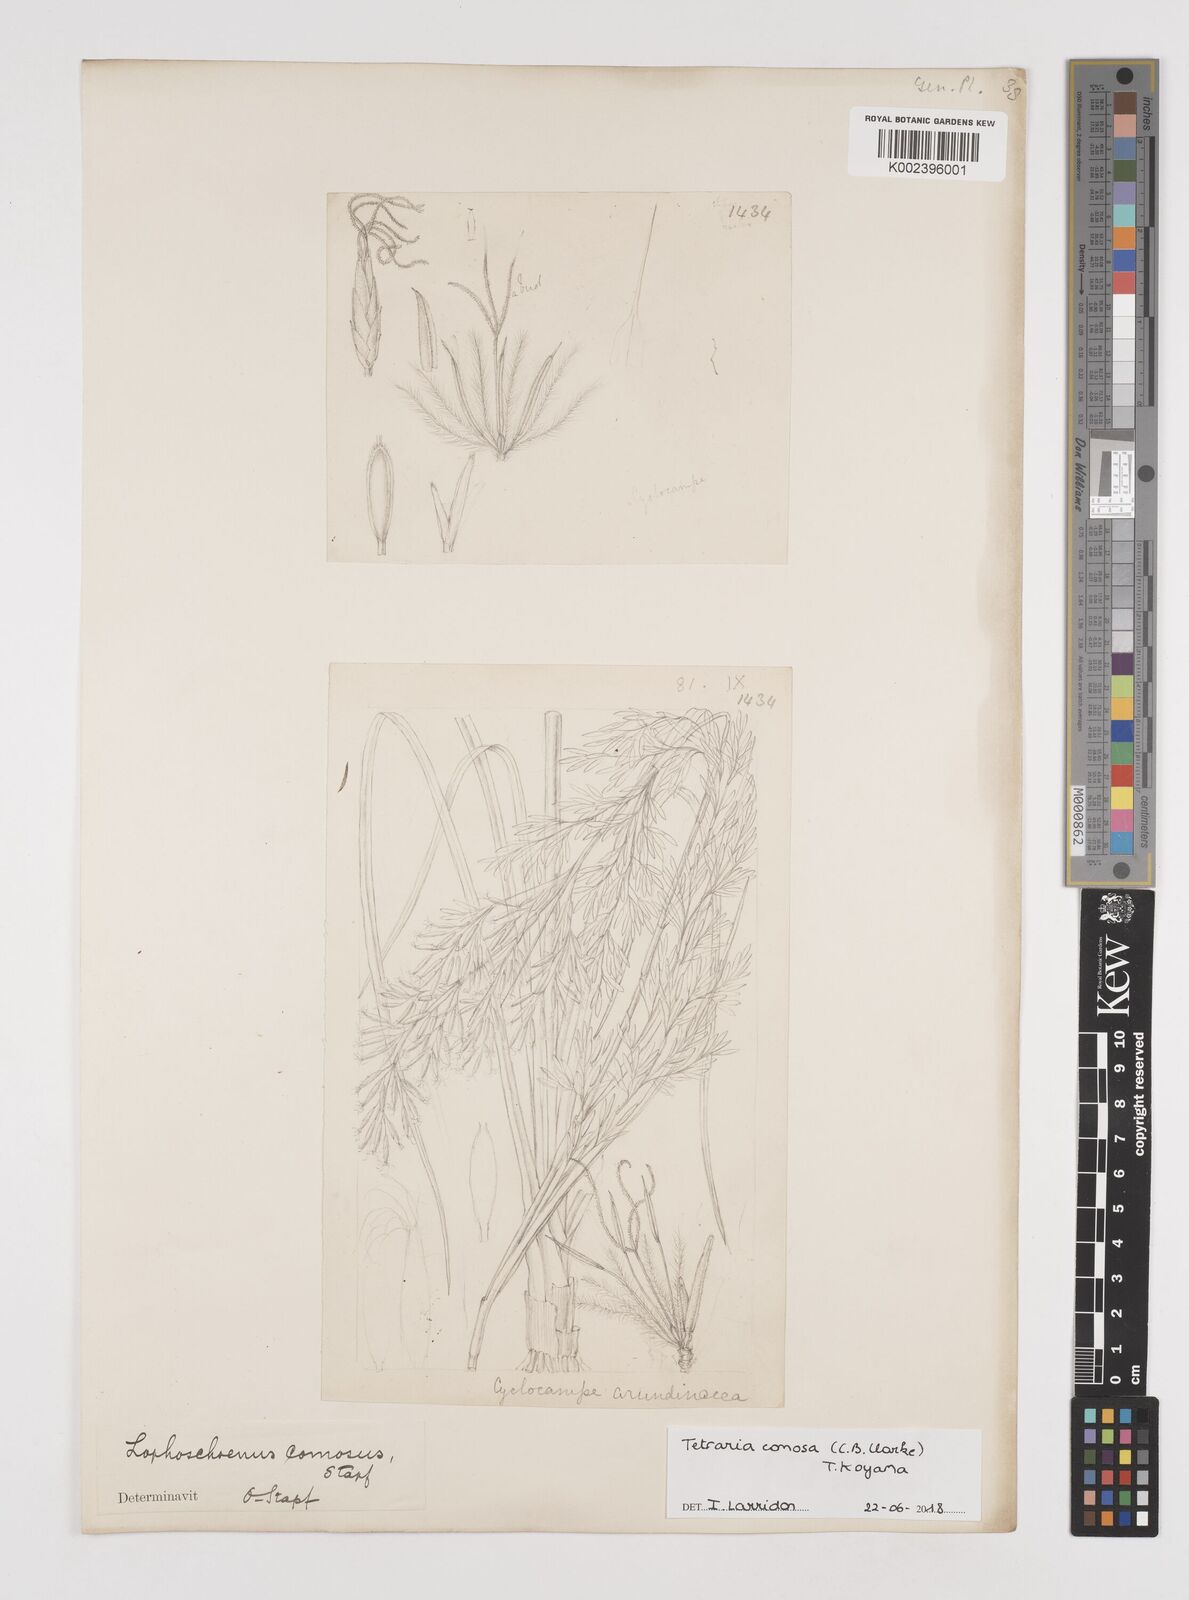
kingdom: Plantae
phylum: Tracheophyta
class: Liliopsida
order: Poales
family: Cyperaceae
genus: Tetraria
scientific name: Tetraria comosa
